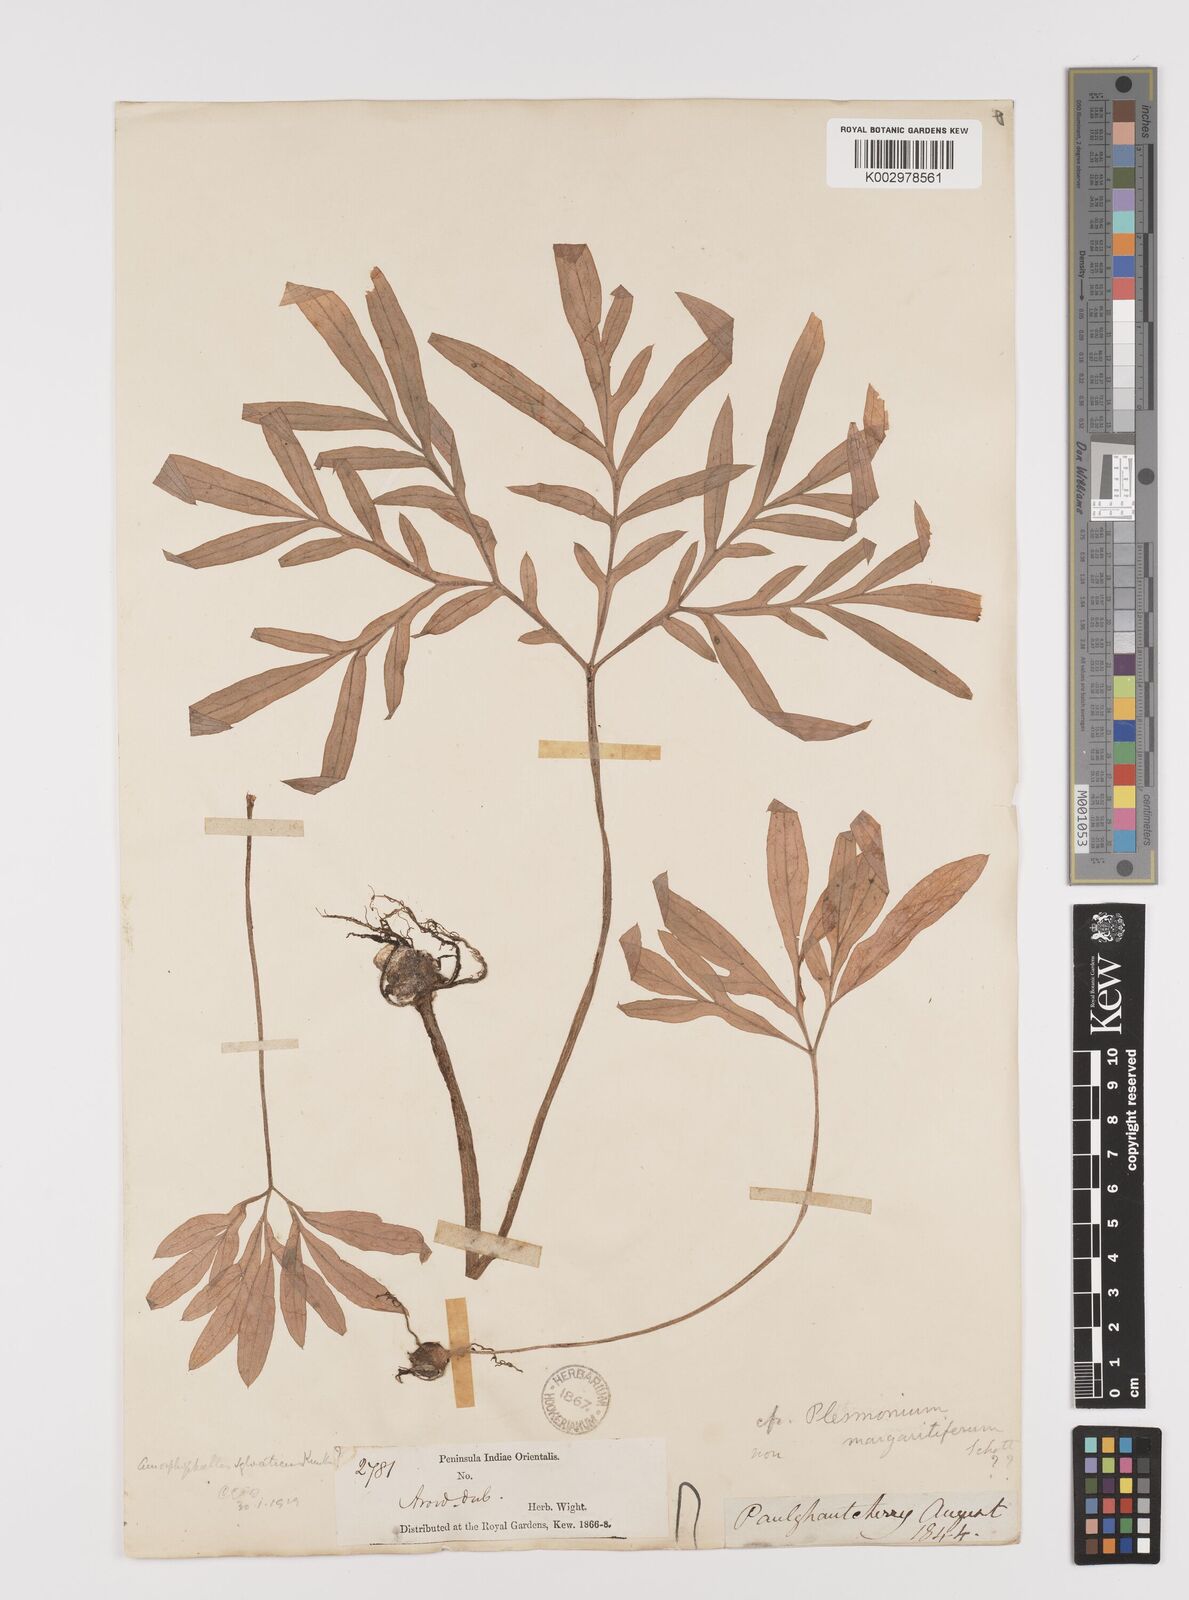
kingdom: Plantae
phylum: Tracheophyta
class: Liliopsida
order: Alismatales
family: Araceae
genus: Amorphophallus
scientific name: Amorphophallus sylvaticus
